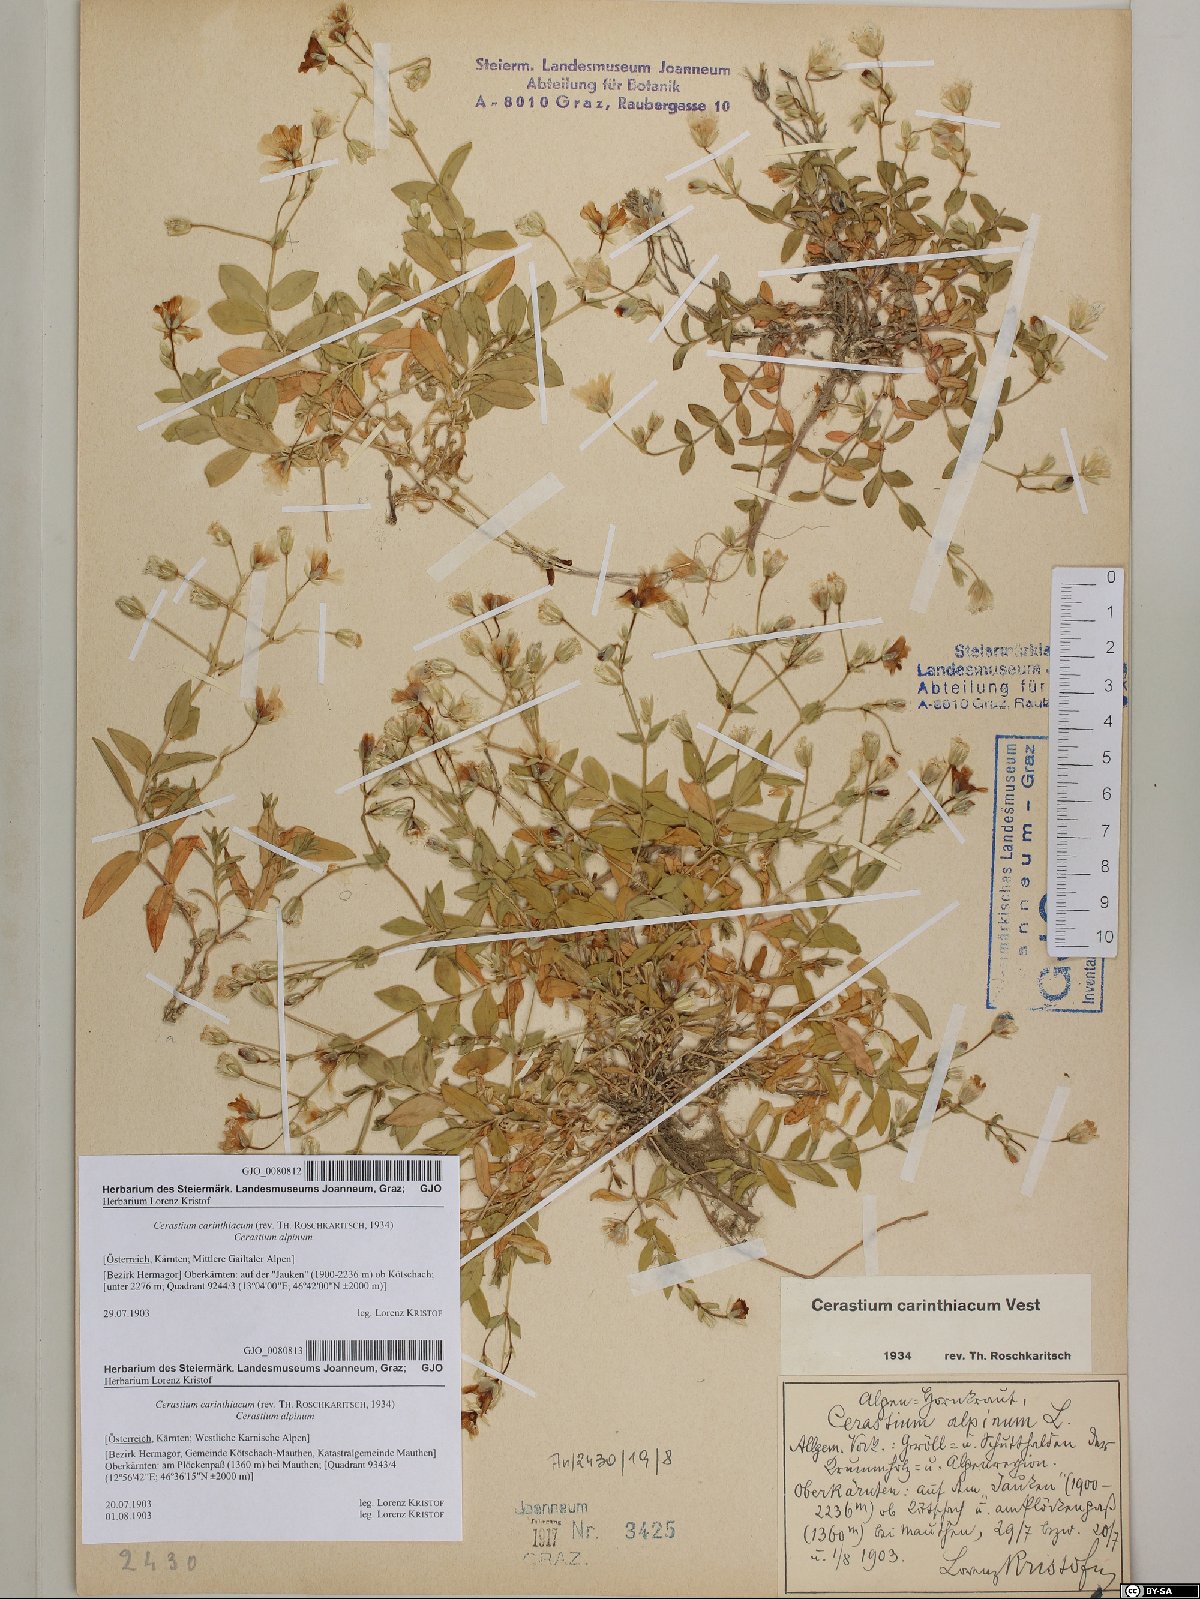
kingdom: Plantae
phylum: Tracheophyta
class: Magnoliopsida
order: Caryophyllales
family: Caryophyllaceae
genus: Cerastium
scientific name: Cerastium carinthiacum
